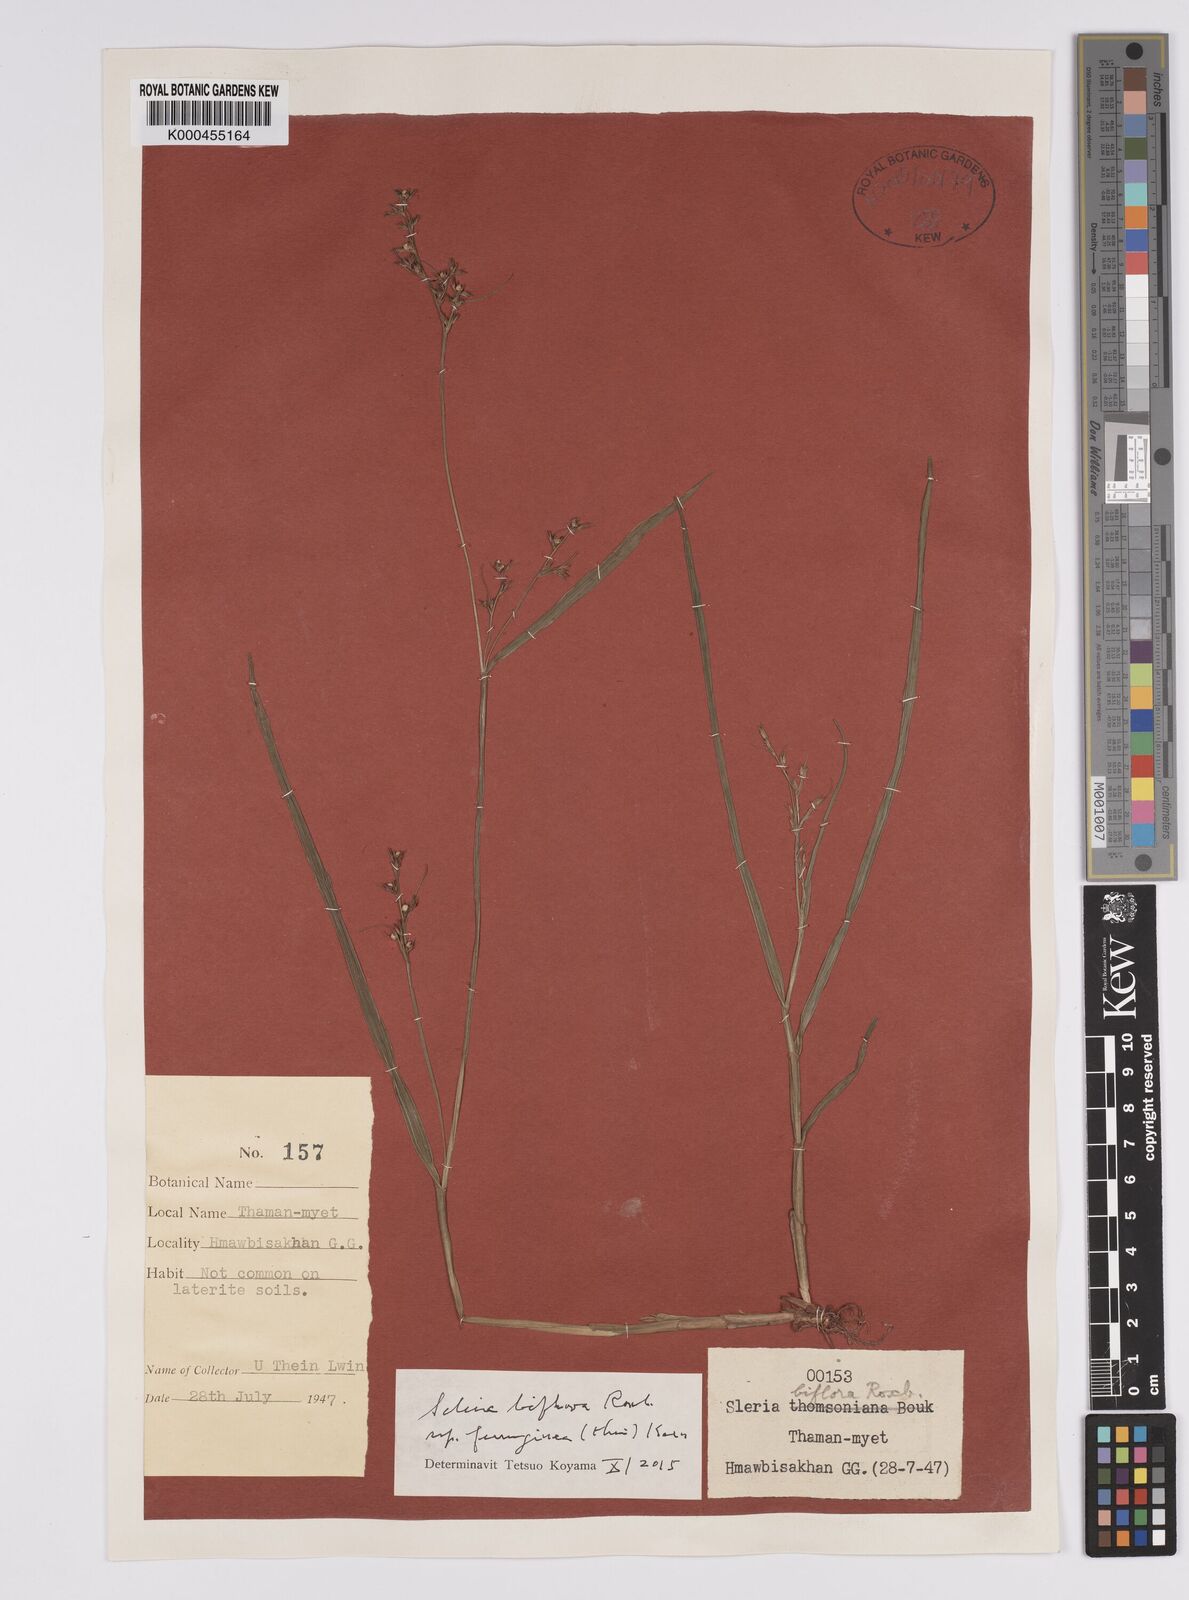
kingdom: Plantae
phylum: Tracheophyta
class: Liliopsida
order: Poales
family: Cyperaceae
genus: Scleria
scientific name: Scleria biflora
